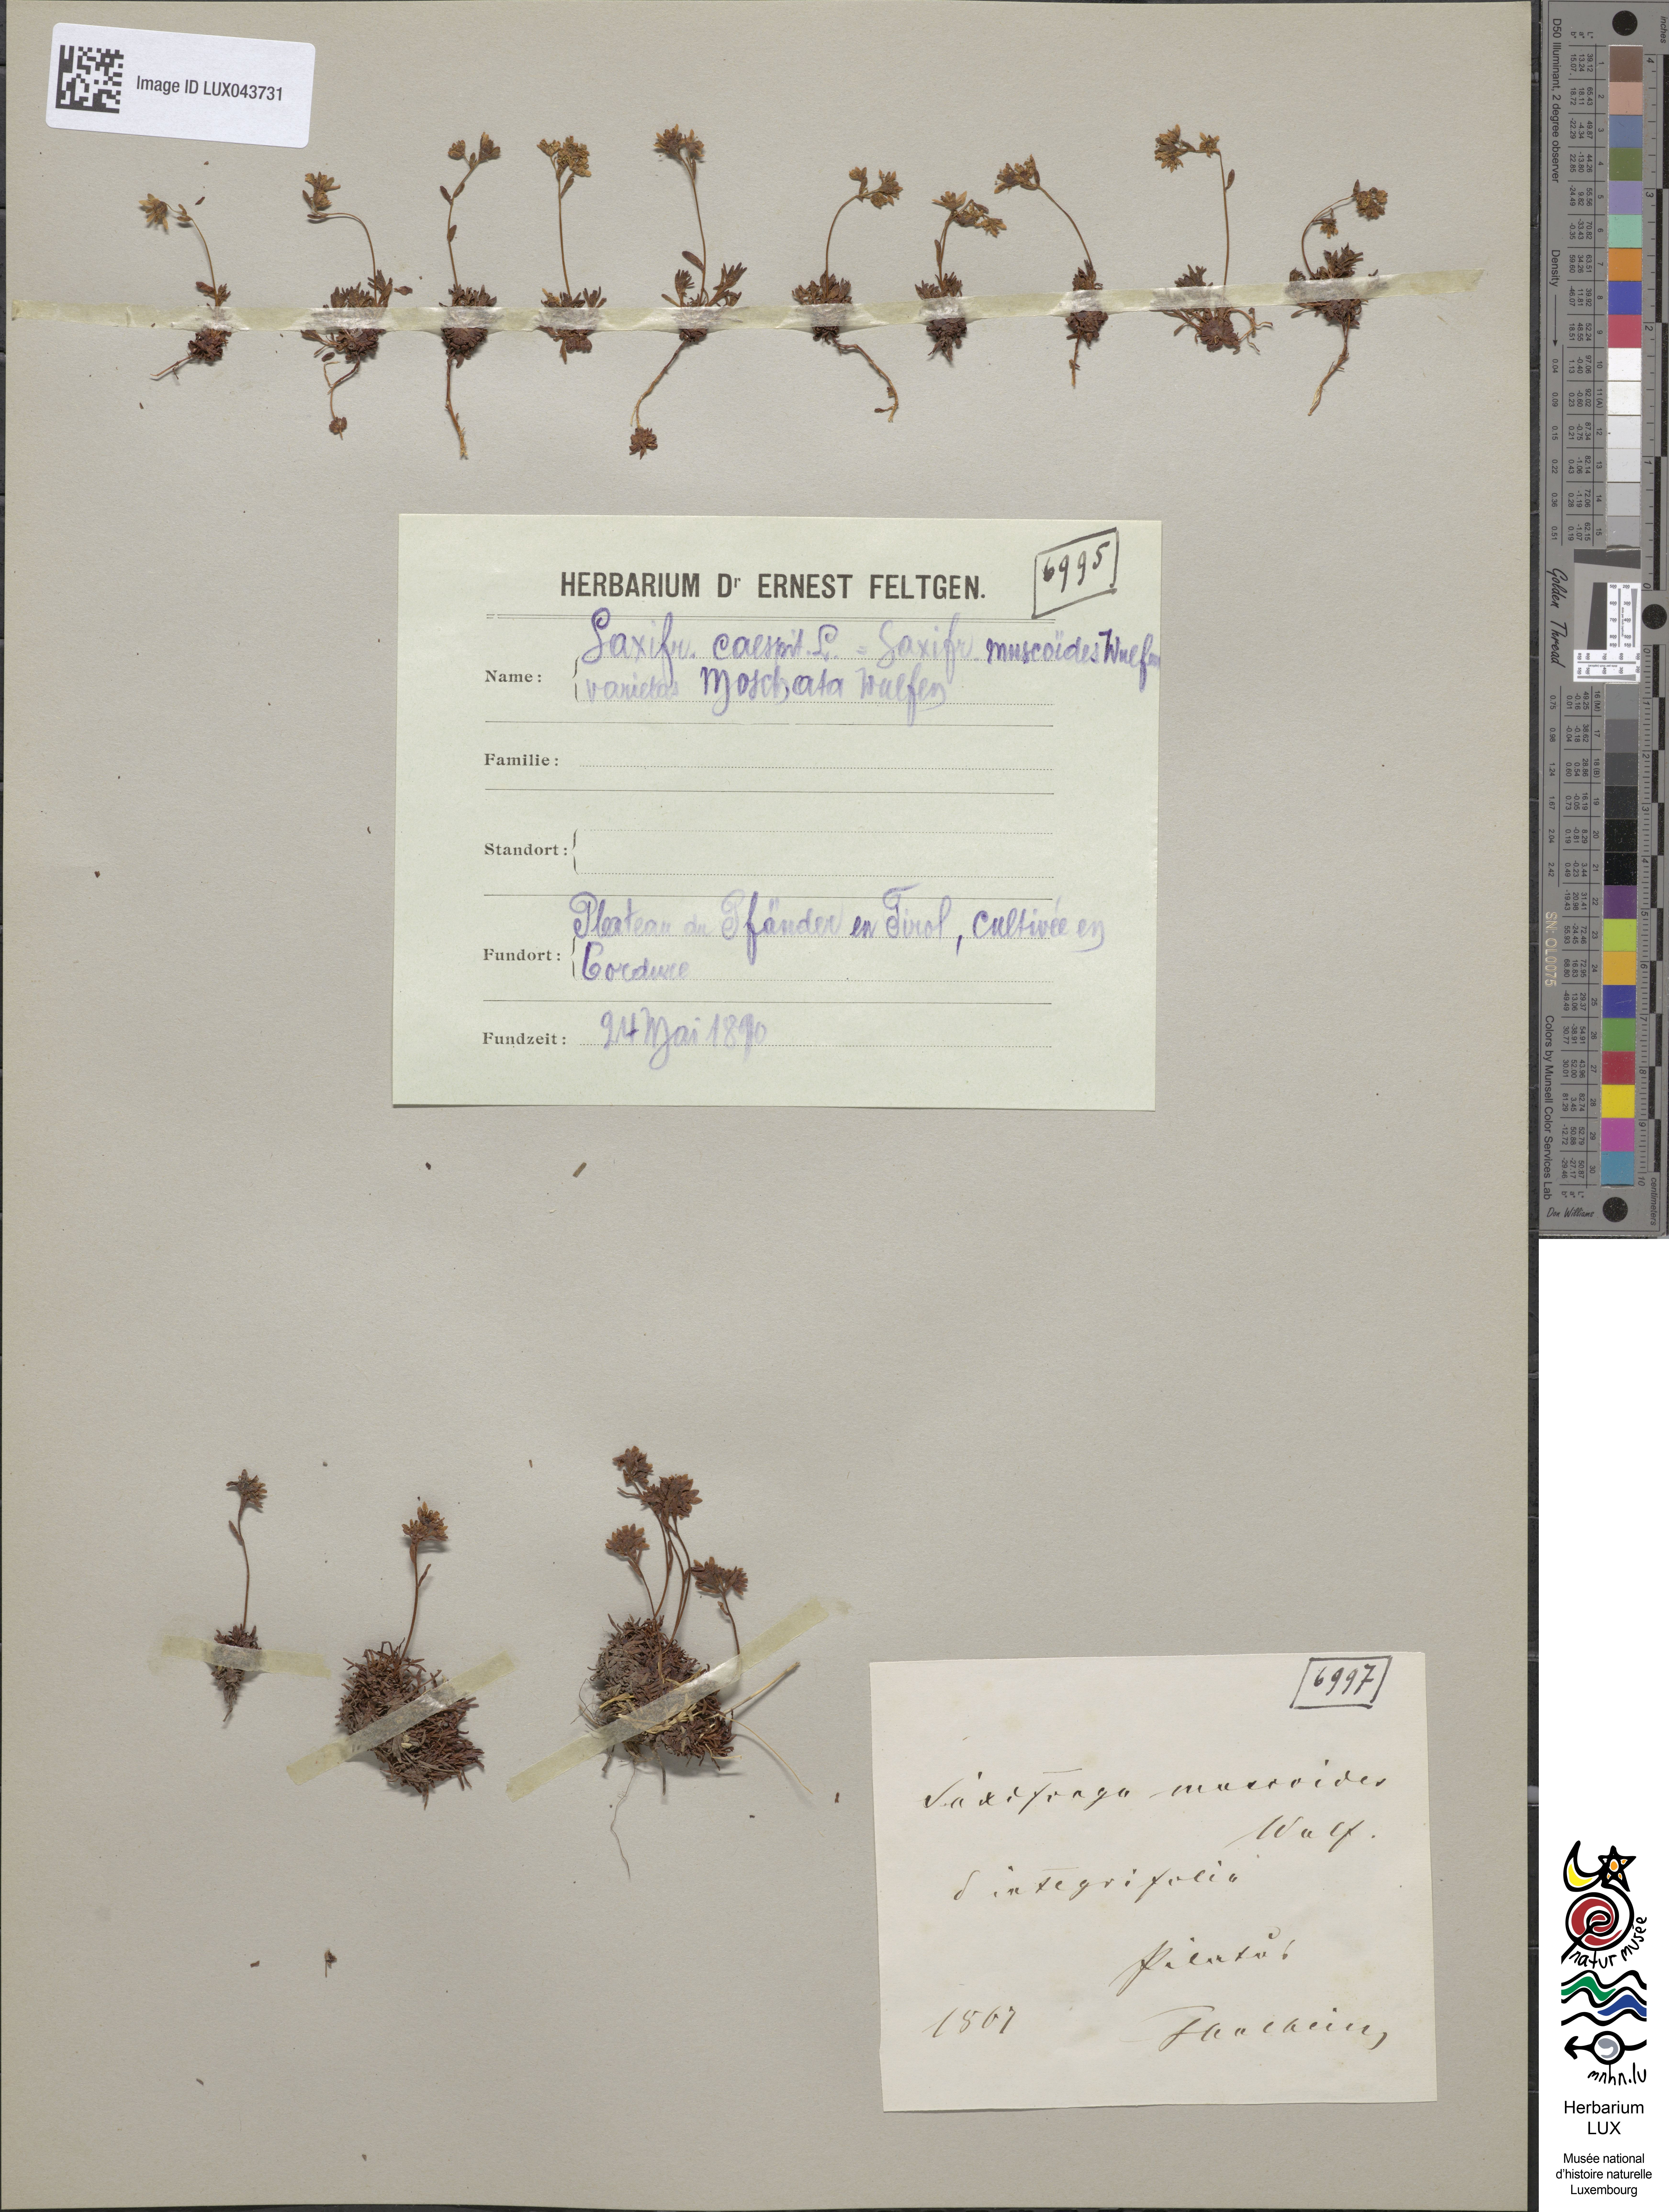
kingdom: Plantae
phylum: Tracheophyta
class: Magnoliopsida
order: Saxifragales
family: Saxifragaceae
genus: Saxifraga
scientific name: Saxifraga moschata
